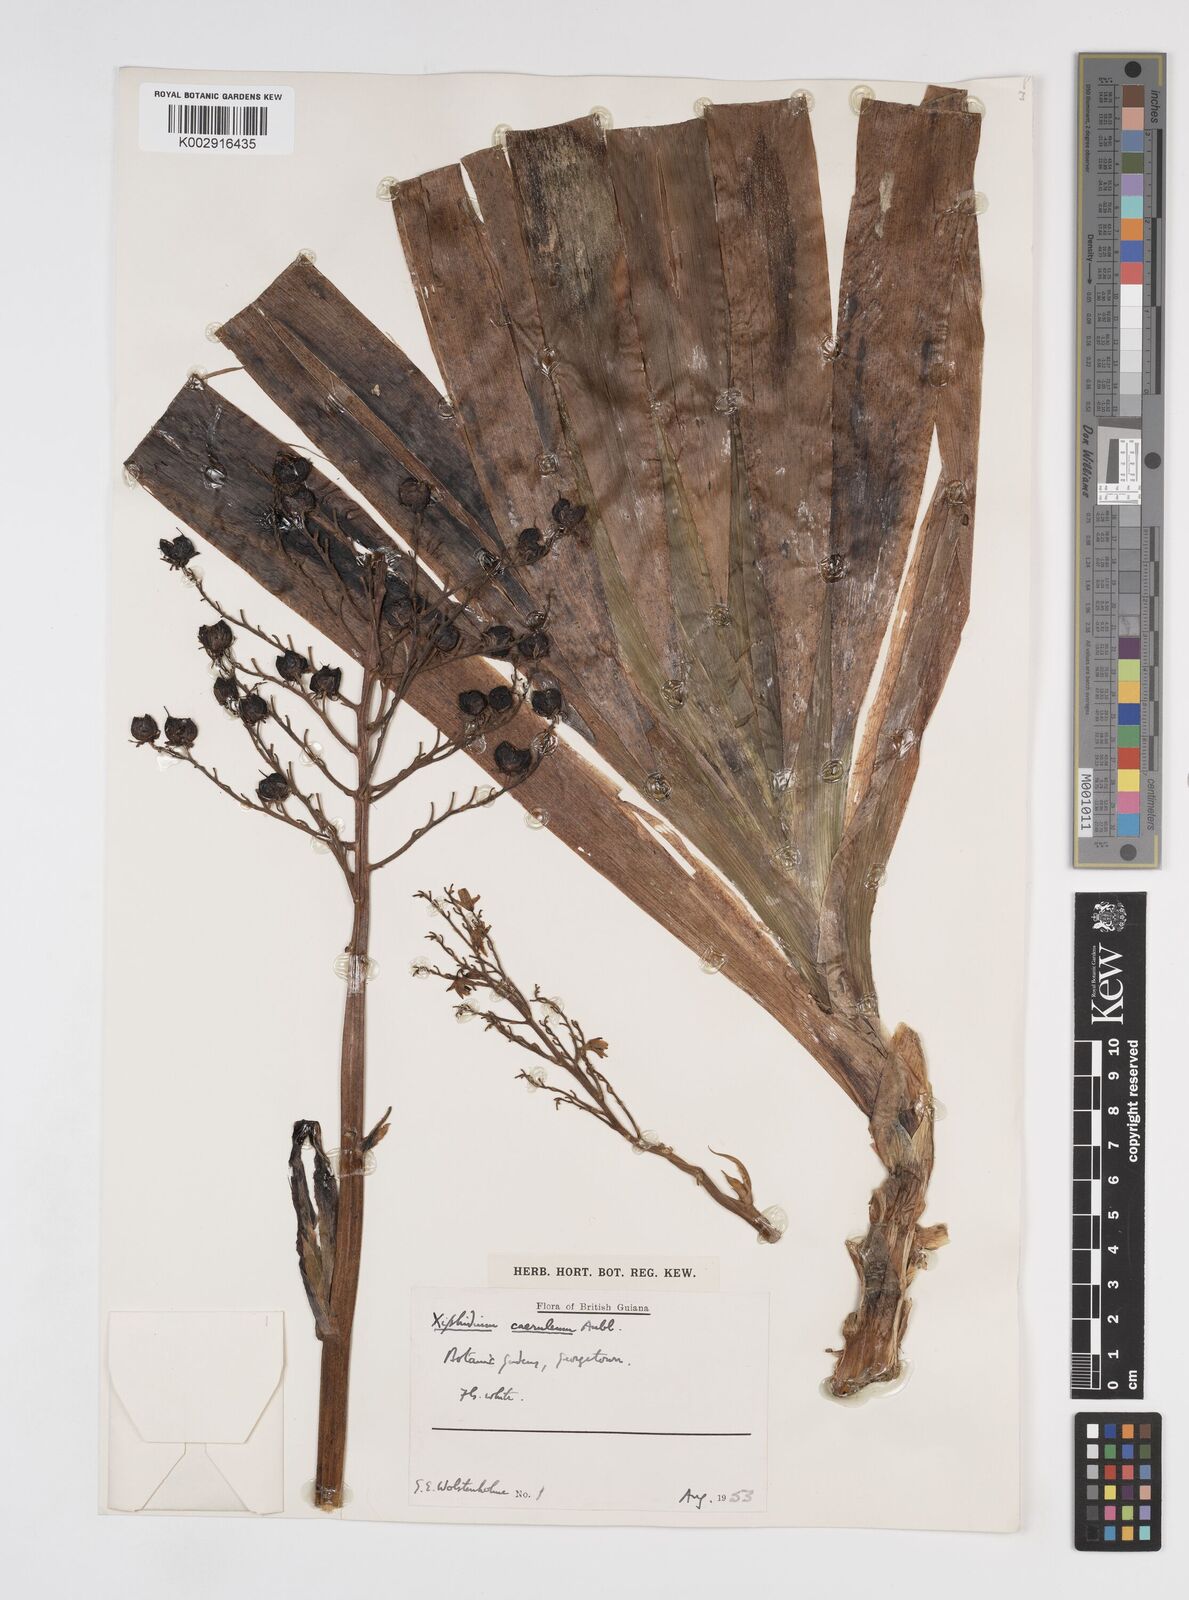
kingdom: Plantae
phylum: Tracheophyta
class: Liliopsida
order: Commelinales
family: Haemodoraceae
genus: Xiphidium
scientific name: Xiphidium caeruleum
